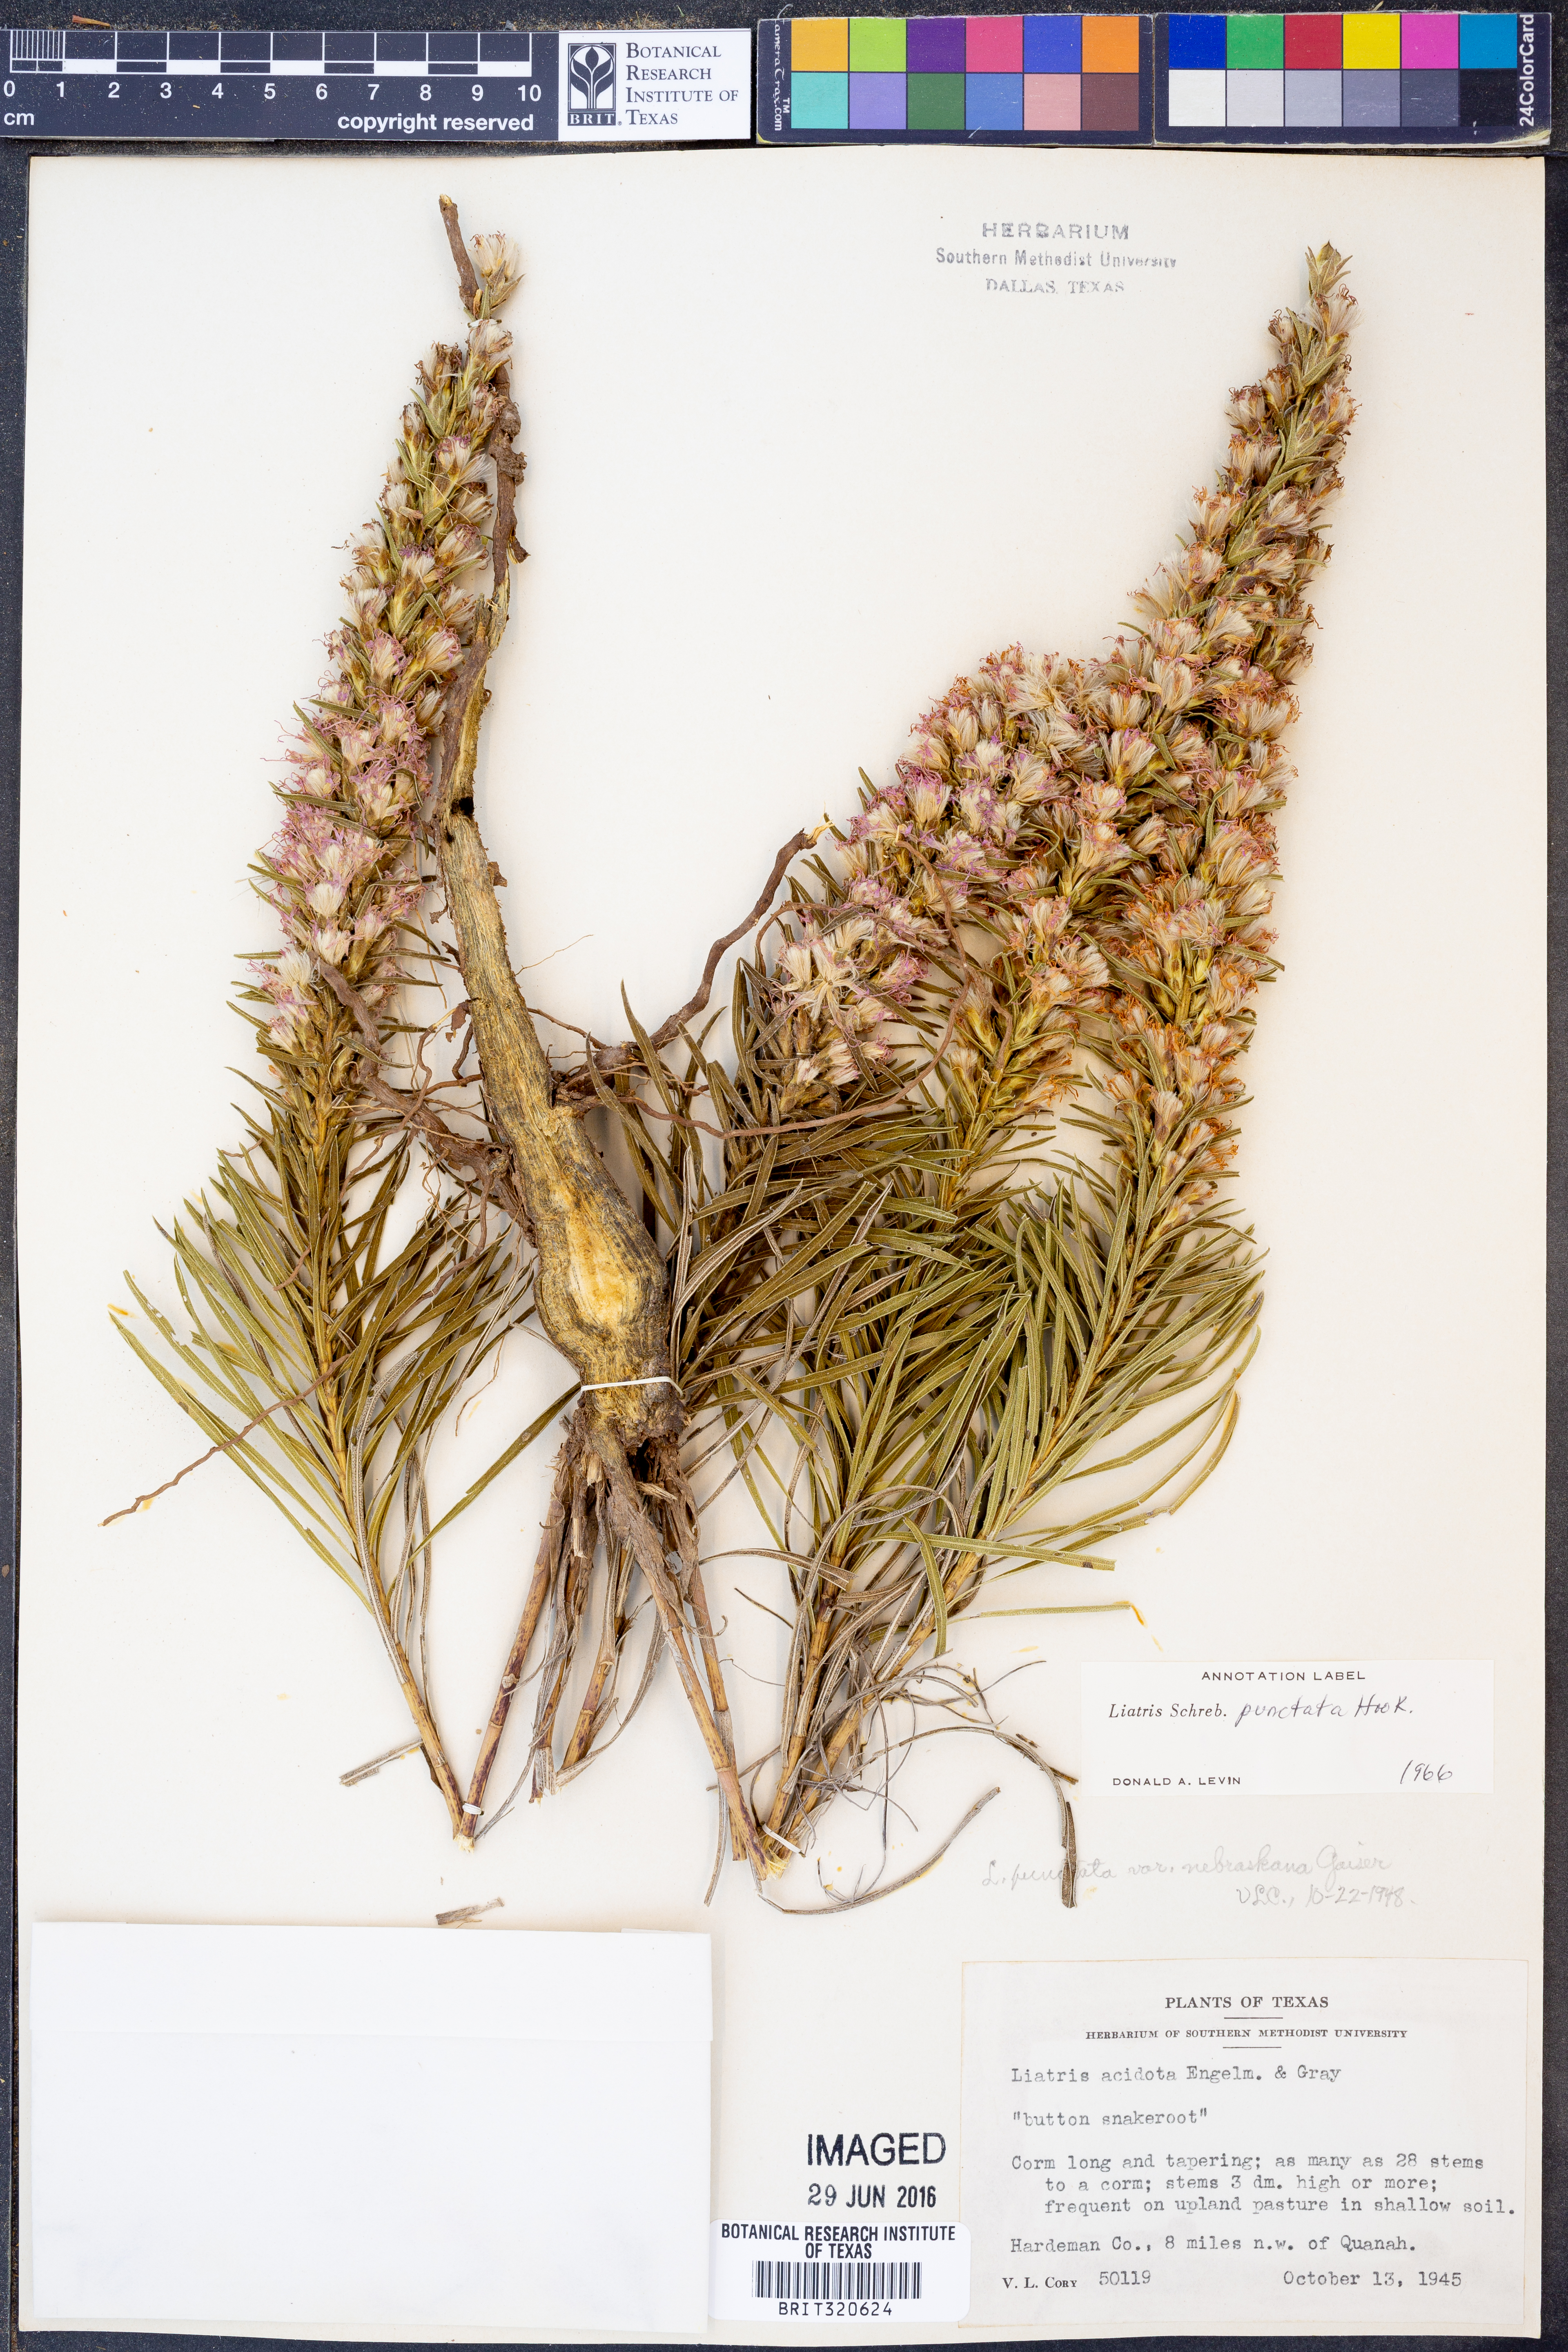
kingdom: Plantae
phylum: Tracheophyta
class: Magnoliopsida
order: Asterales
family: Asteraceae
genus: Liatris
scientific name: Liatris punctata
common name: Dotted gayfeather
